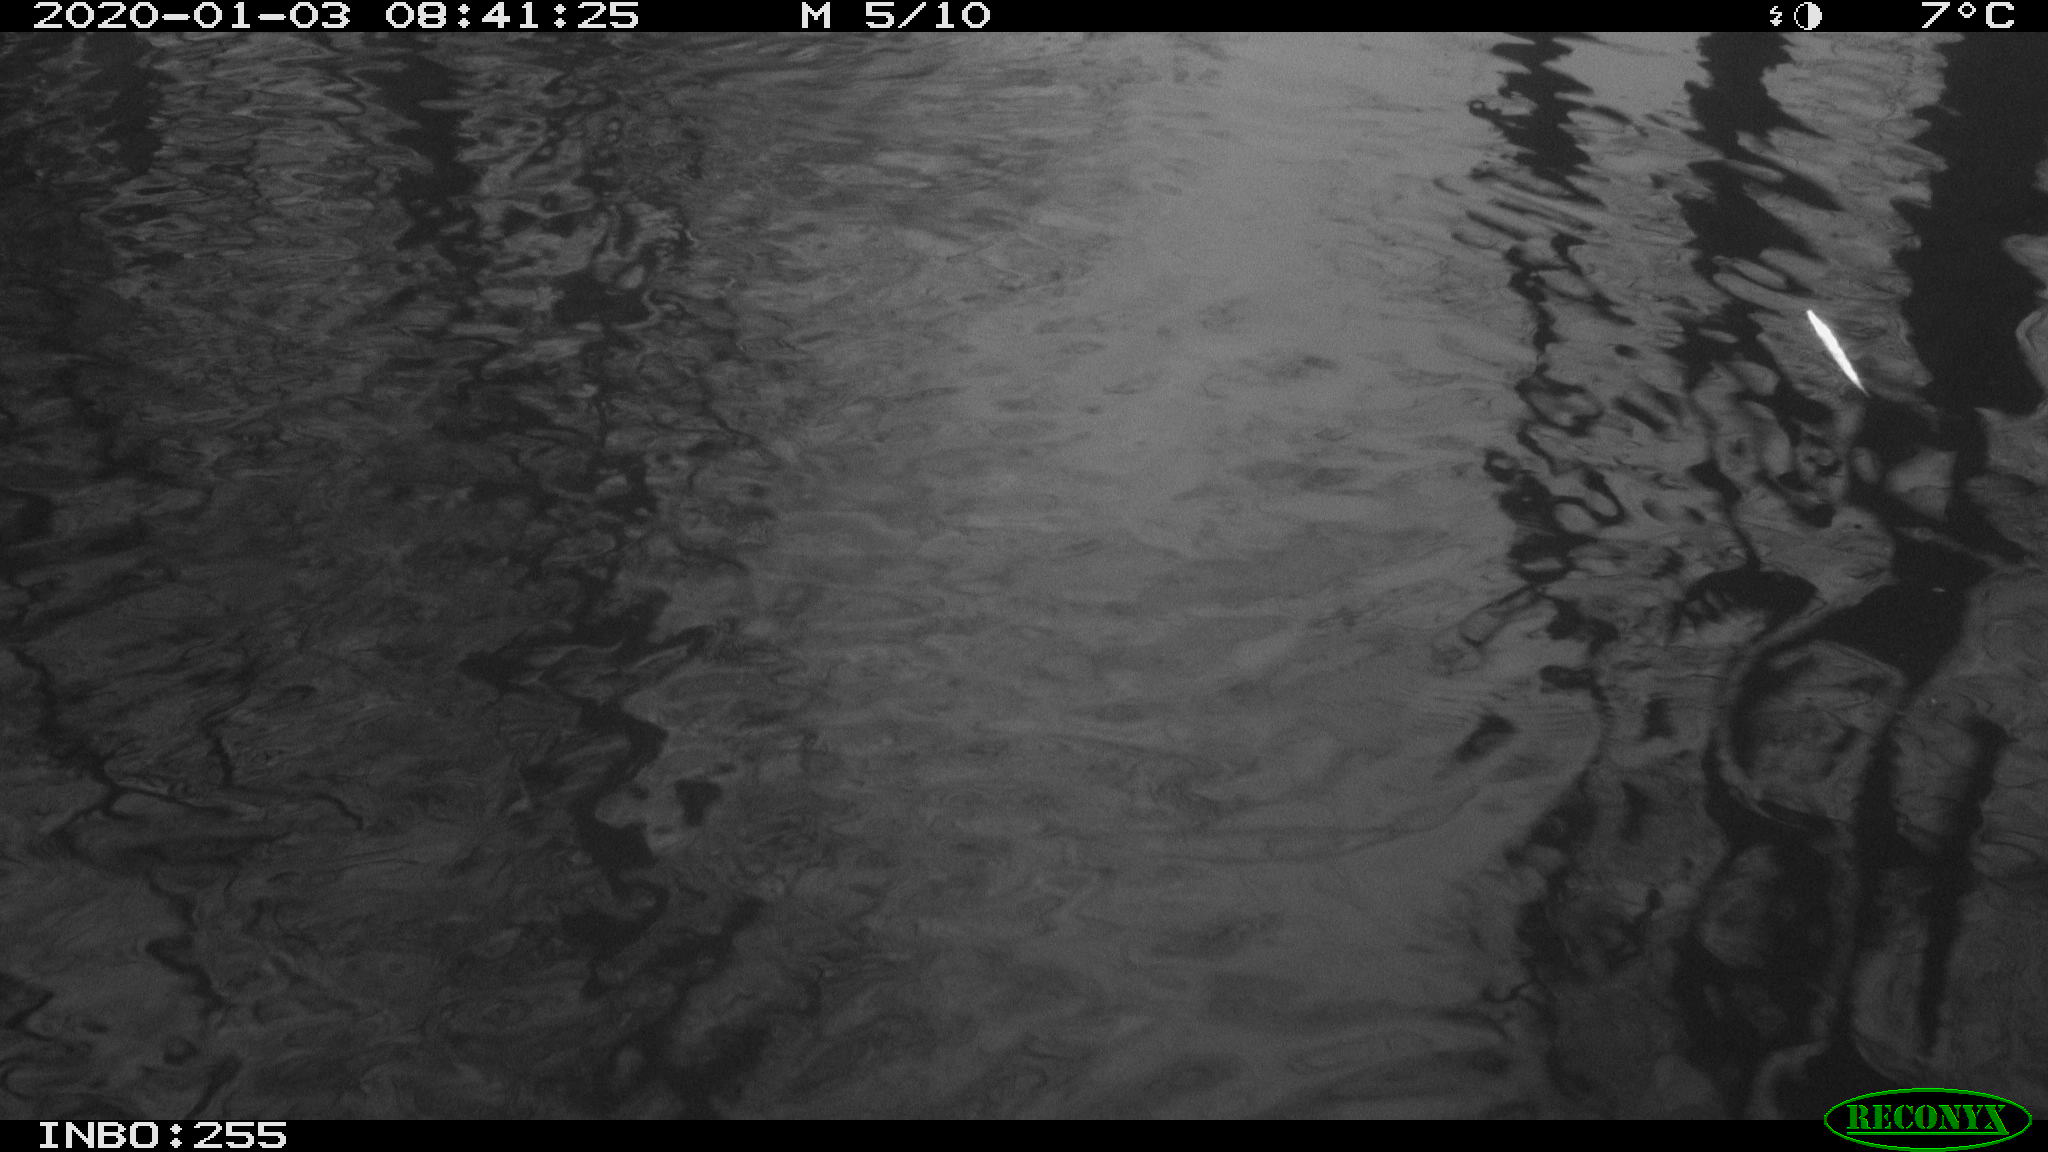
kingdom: Animalia
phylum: Chordata
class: Aves
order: Gruiformes
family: Rallidae
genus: Gallinula
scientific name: Gallinula chloropus
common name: Common moorhen
